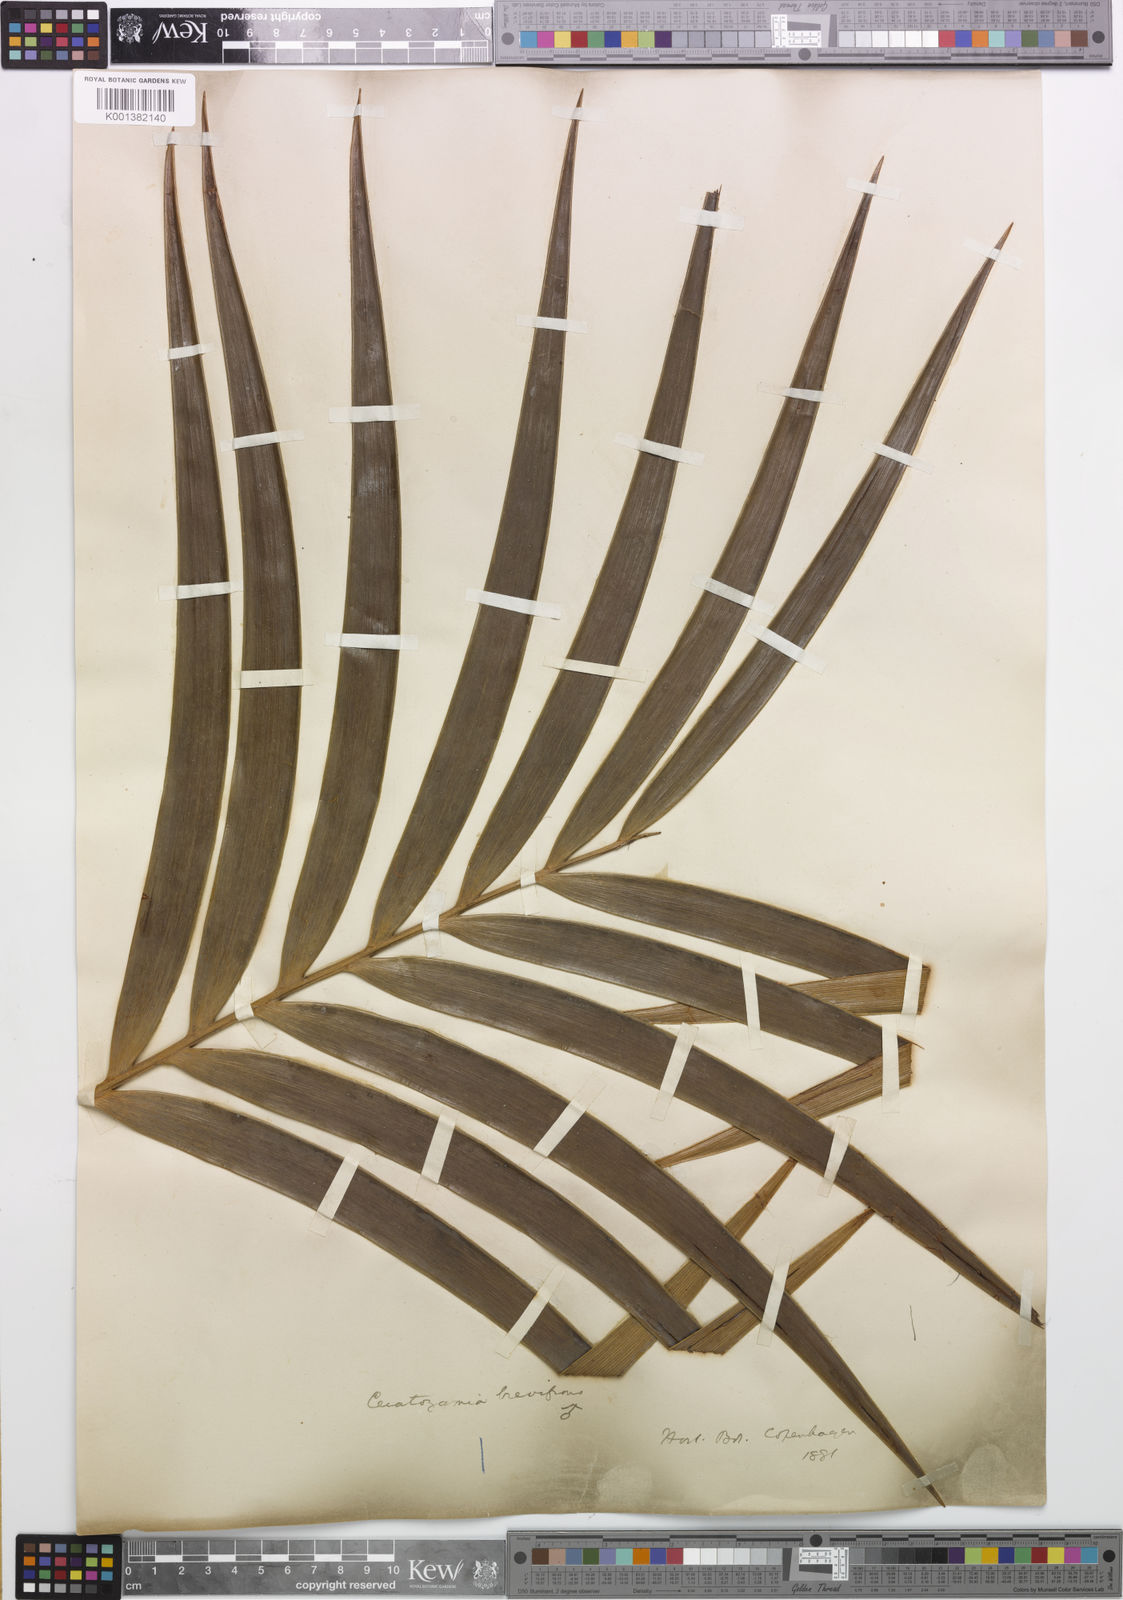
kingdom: Plantae
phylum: Tracheophyta
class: Cycadopsida
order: Cycadales
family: Zamiaceae
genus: Ceratozamia
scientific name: Ceratozamia mexicana
